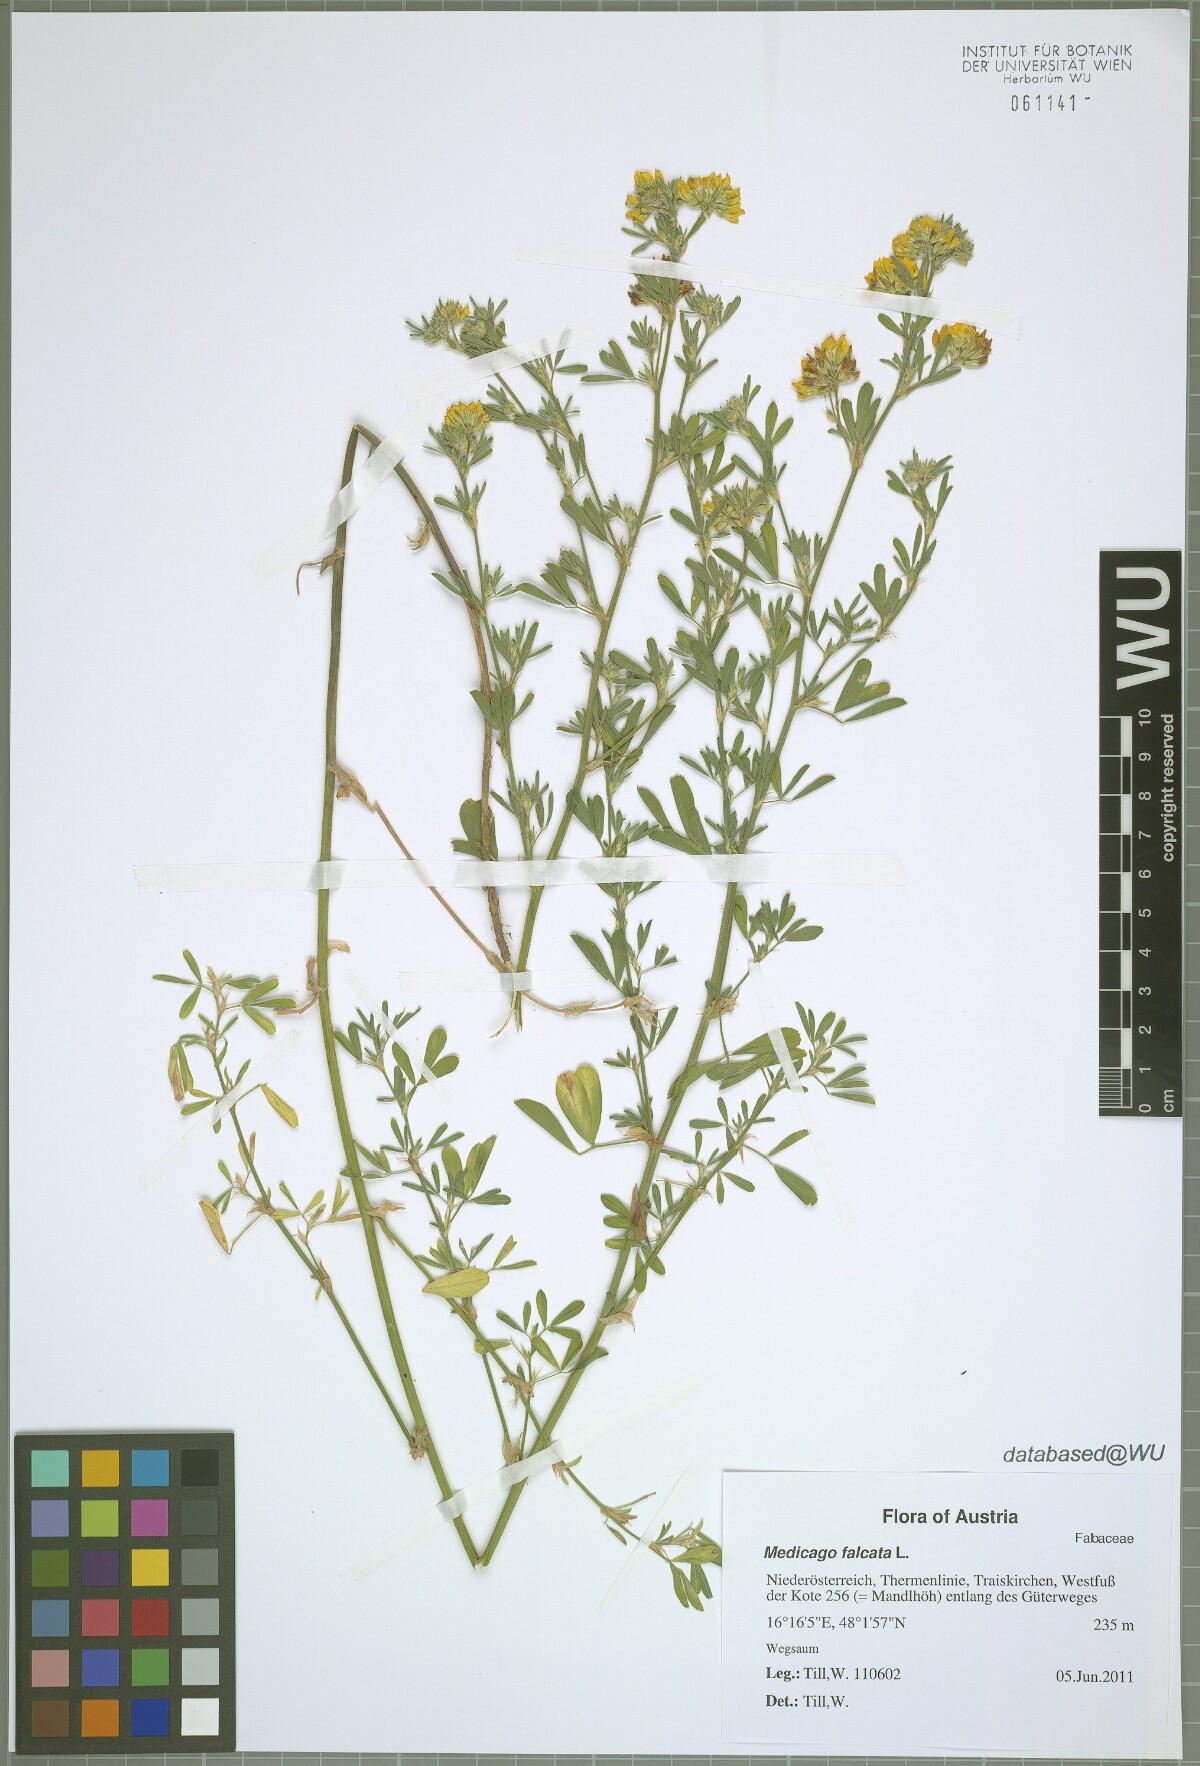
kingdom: Plantae
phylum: Tracheophyta
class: Magnoliopsida
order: Fabales
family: Fabaceae
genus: Medicago
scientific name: Medicago falcata
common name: Sickle medick
